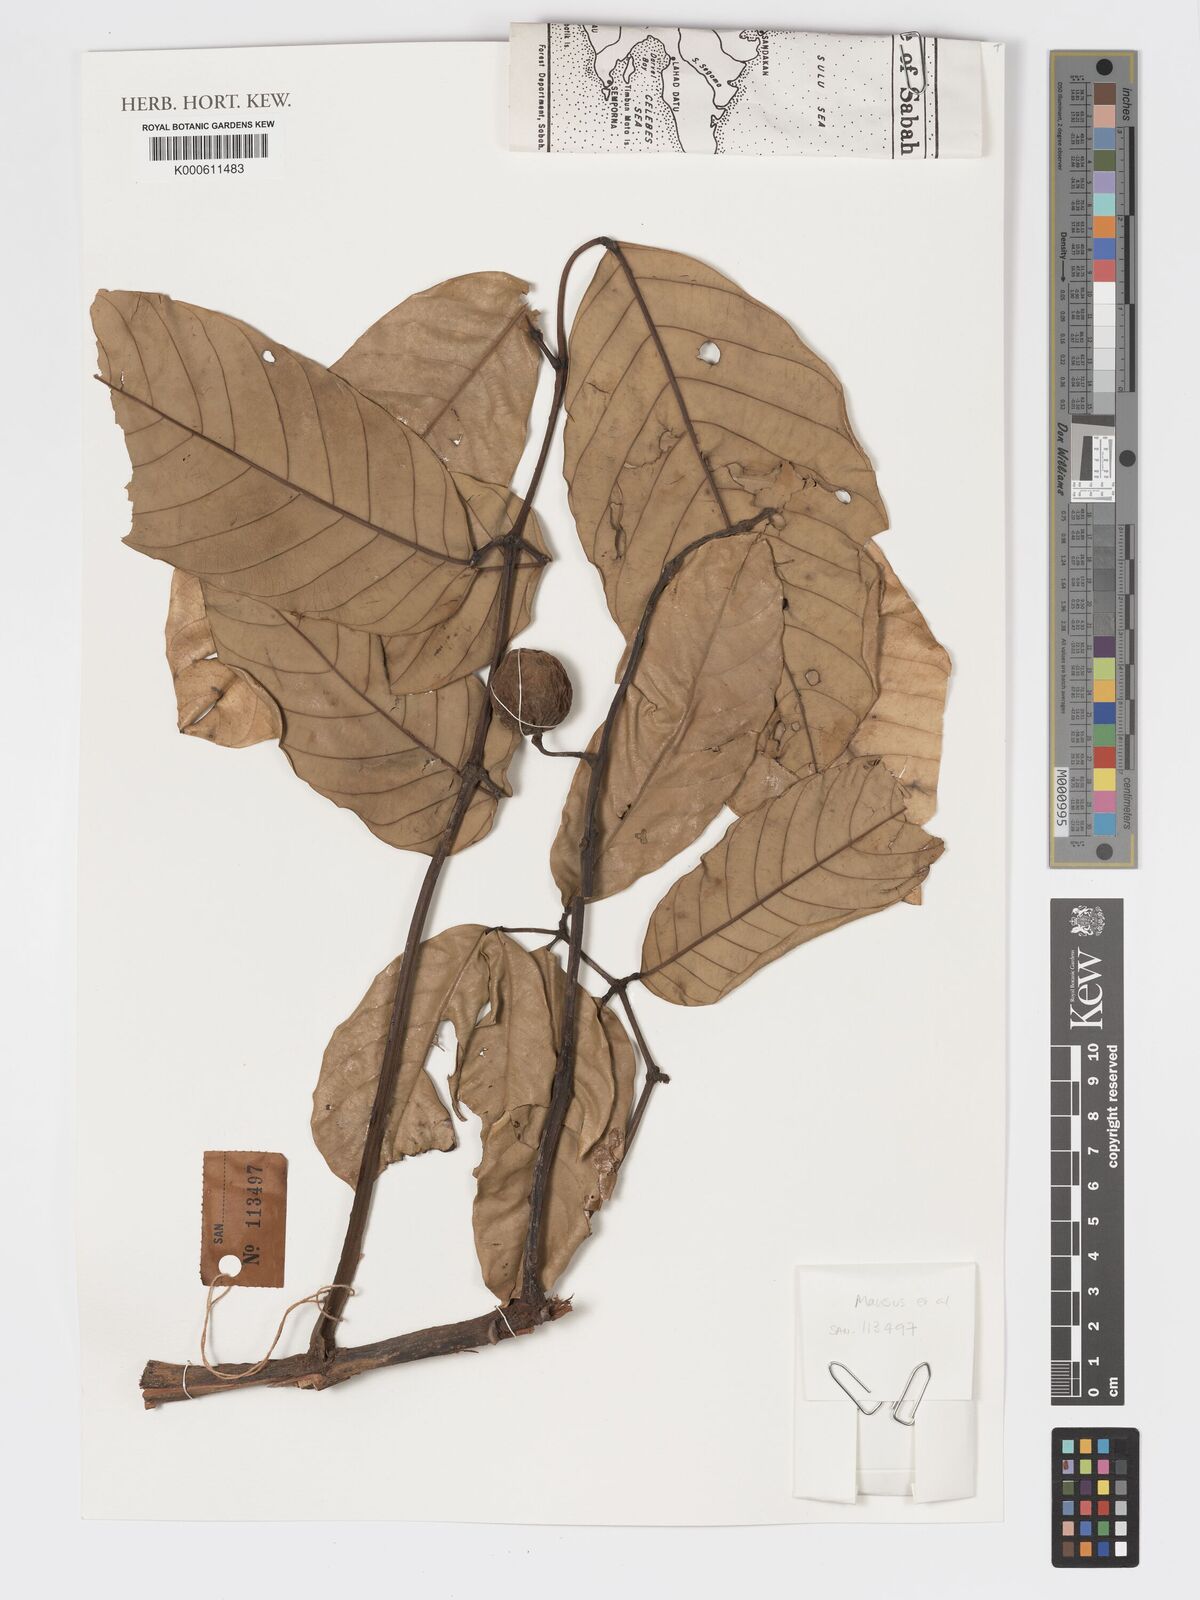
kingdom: Plantae
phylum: Tracheophyta
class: Magnoliopsida
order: Sapindales
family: Meliaceae
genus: Walsura
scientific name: Walsura pachycaulon
